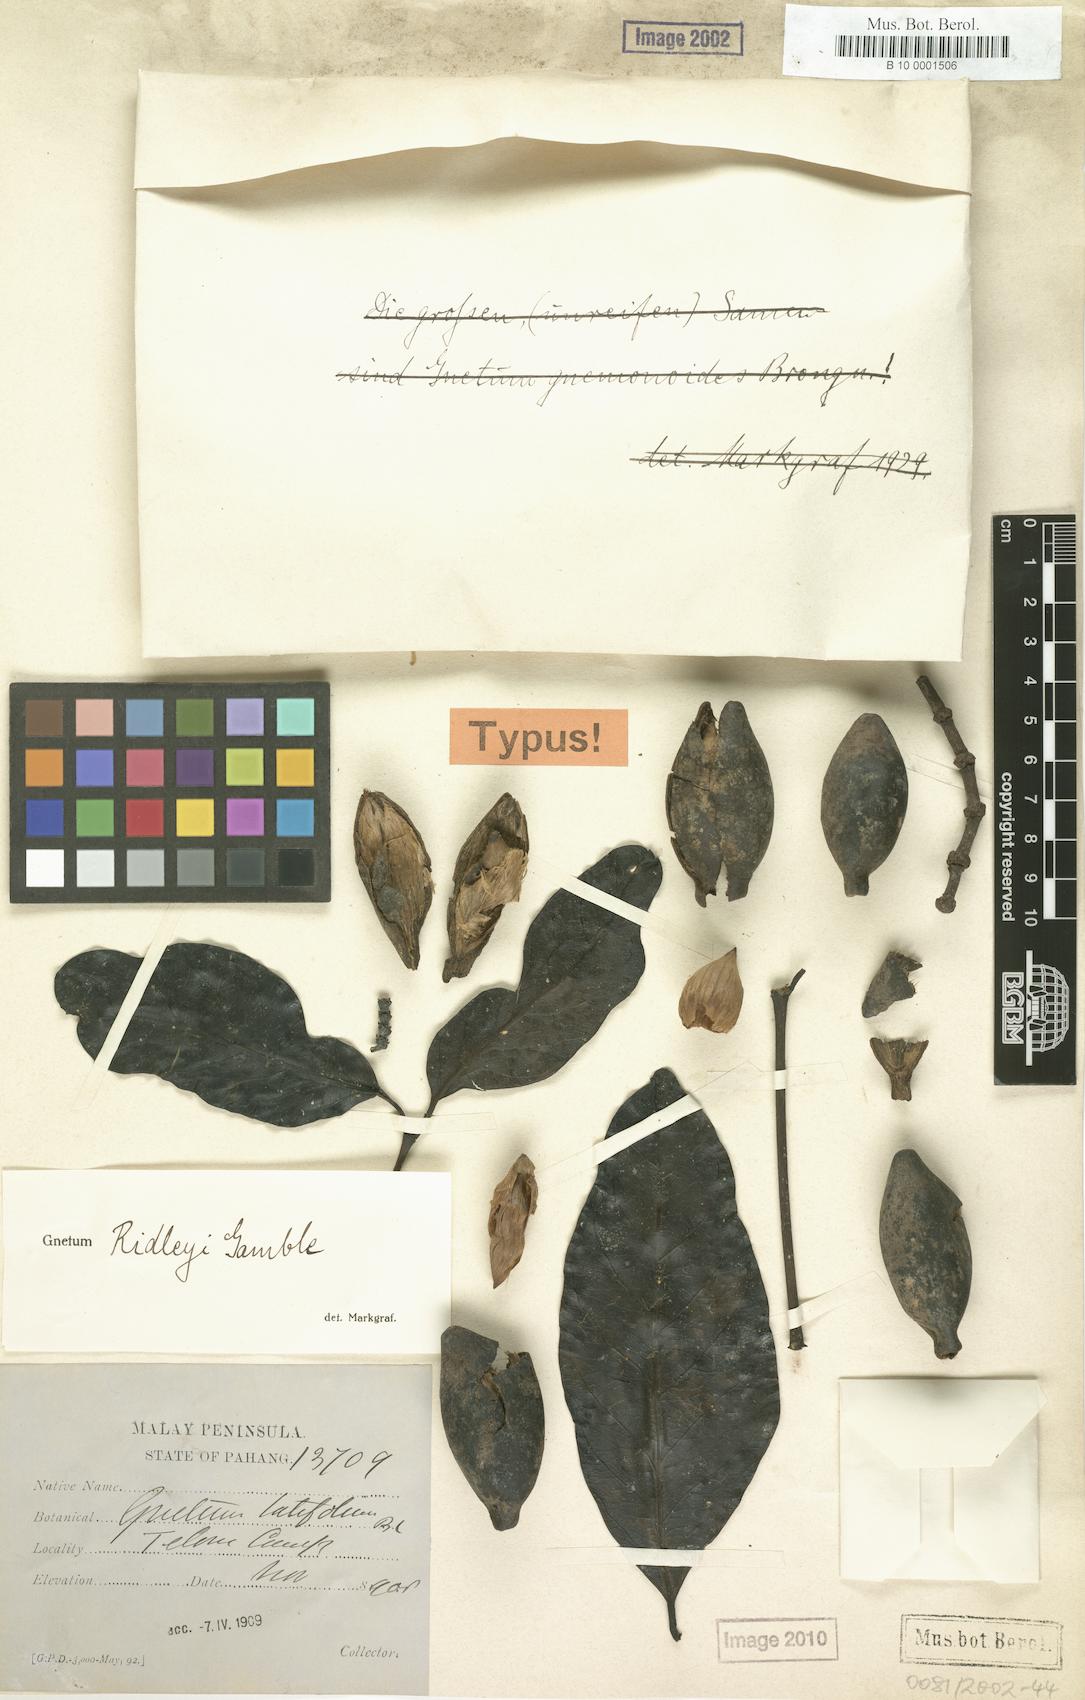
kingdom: Plantae
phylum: Tracheophyta
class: Gnetopsida
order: Gnetales
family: Gnetaceae
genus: Gnetum
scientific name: Gnetum ridleyi
